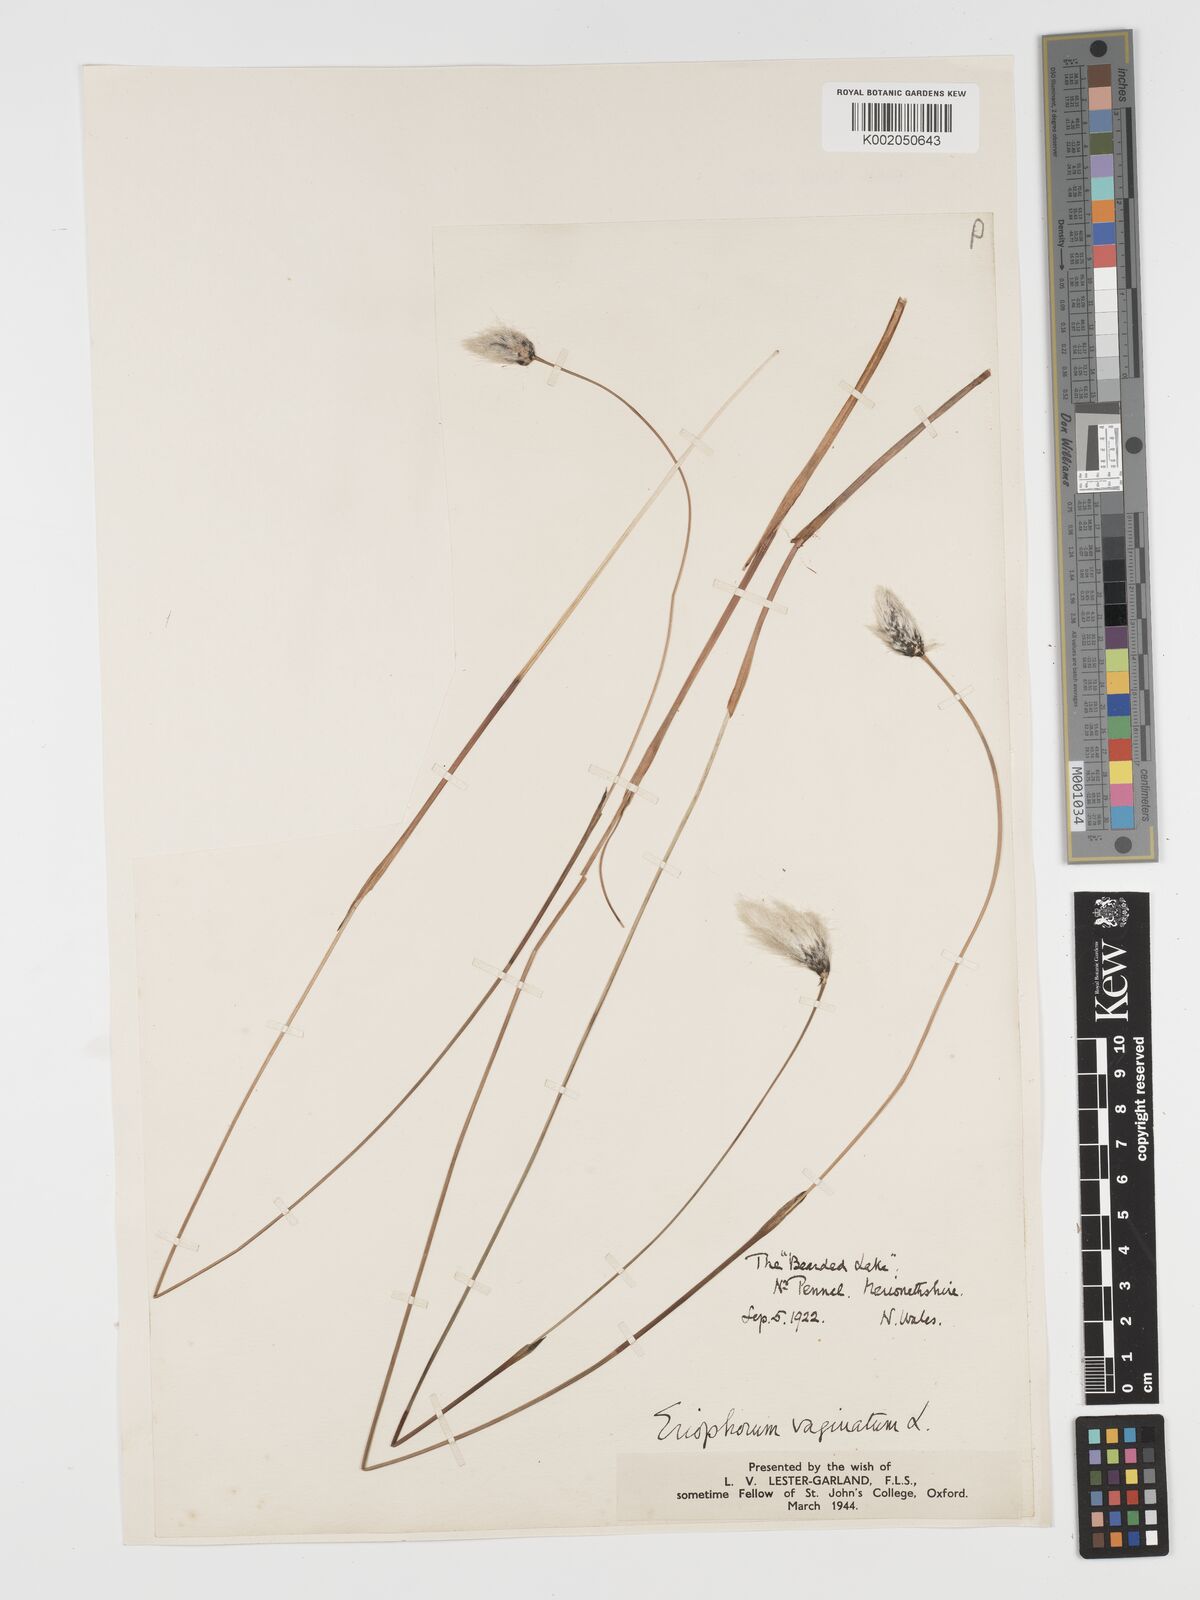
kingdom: Plantae
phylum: Tracheophyta
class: Liliopsida
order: Poales
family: Cyperaceae
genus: Eriophorum
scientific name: Eriophorum vaginatum
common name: Hare's-tail cottongrass
